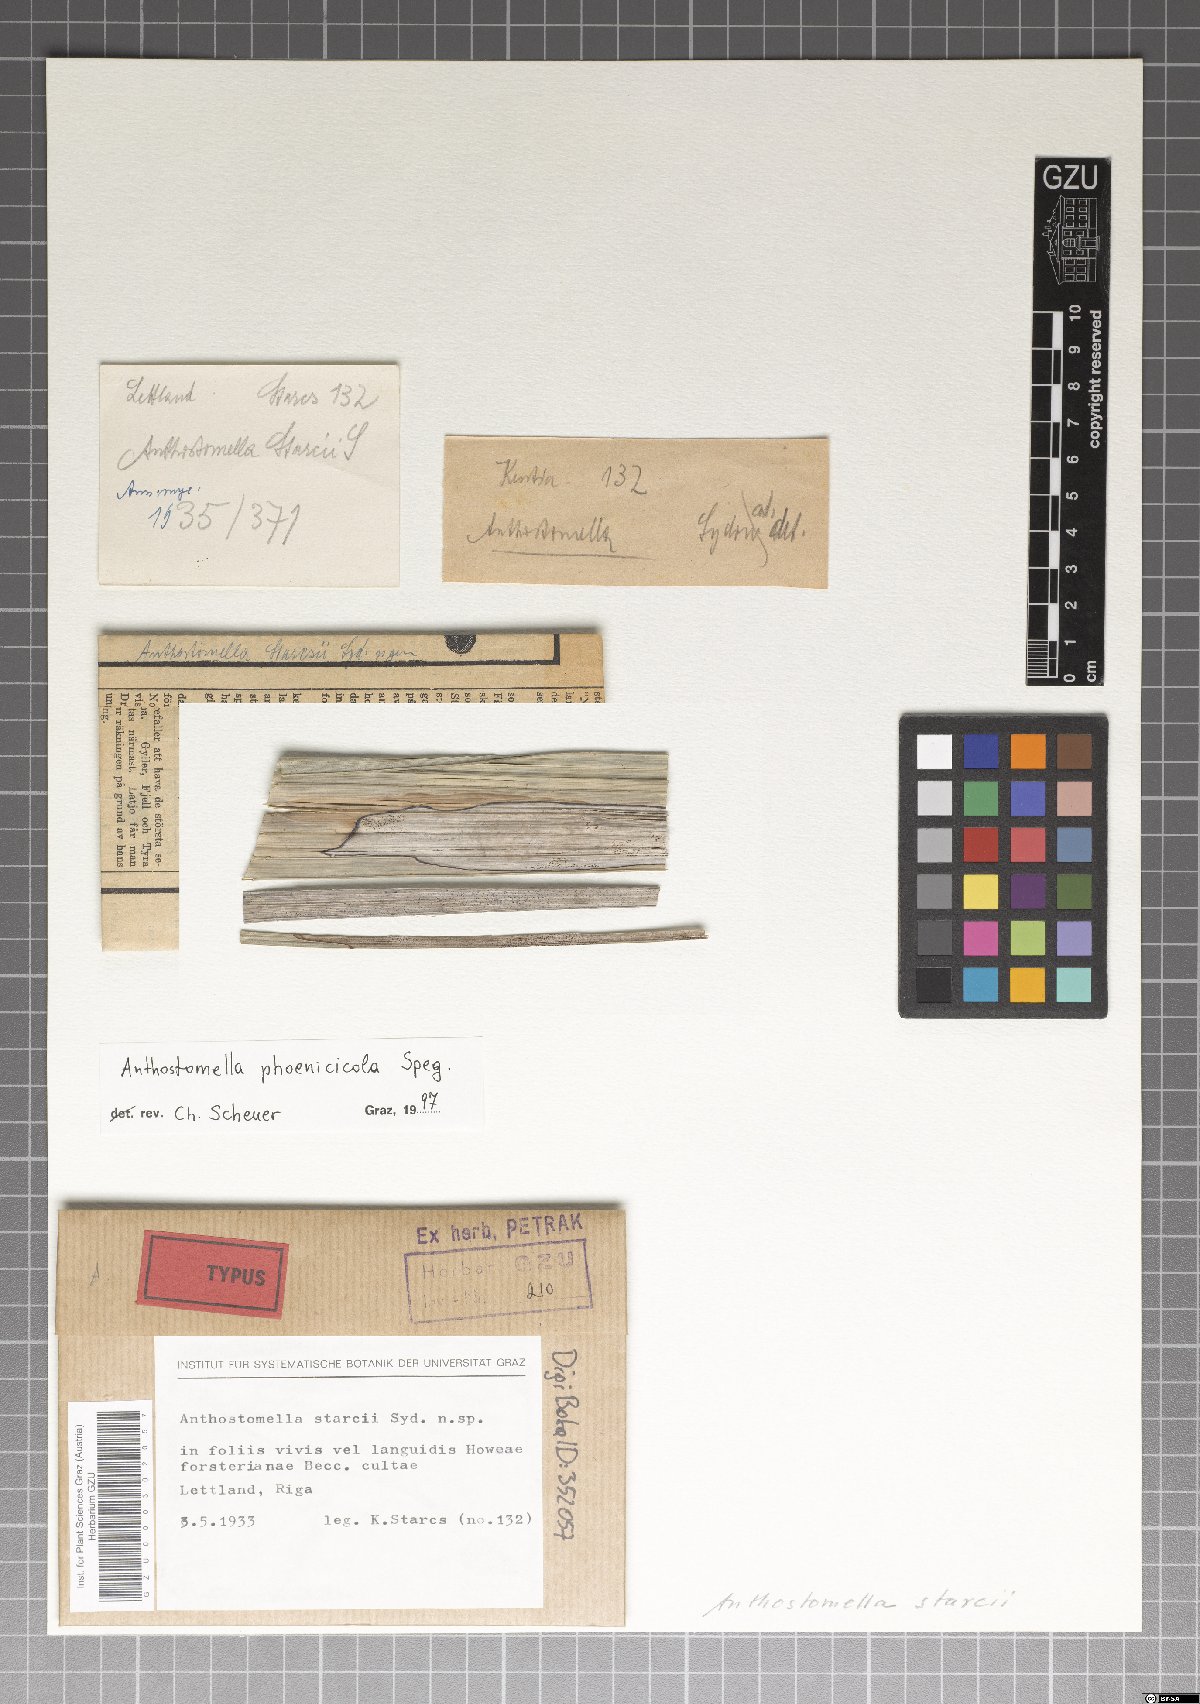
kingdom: Fungi
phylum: Ascomycota
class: Sordariomycetes
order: Xylariales
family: Xylariaceae
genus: Anthostomella
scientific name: Anthostomella starcii
